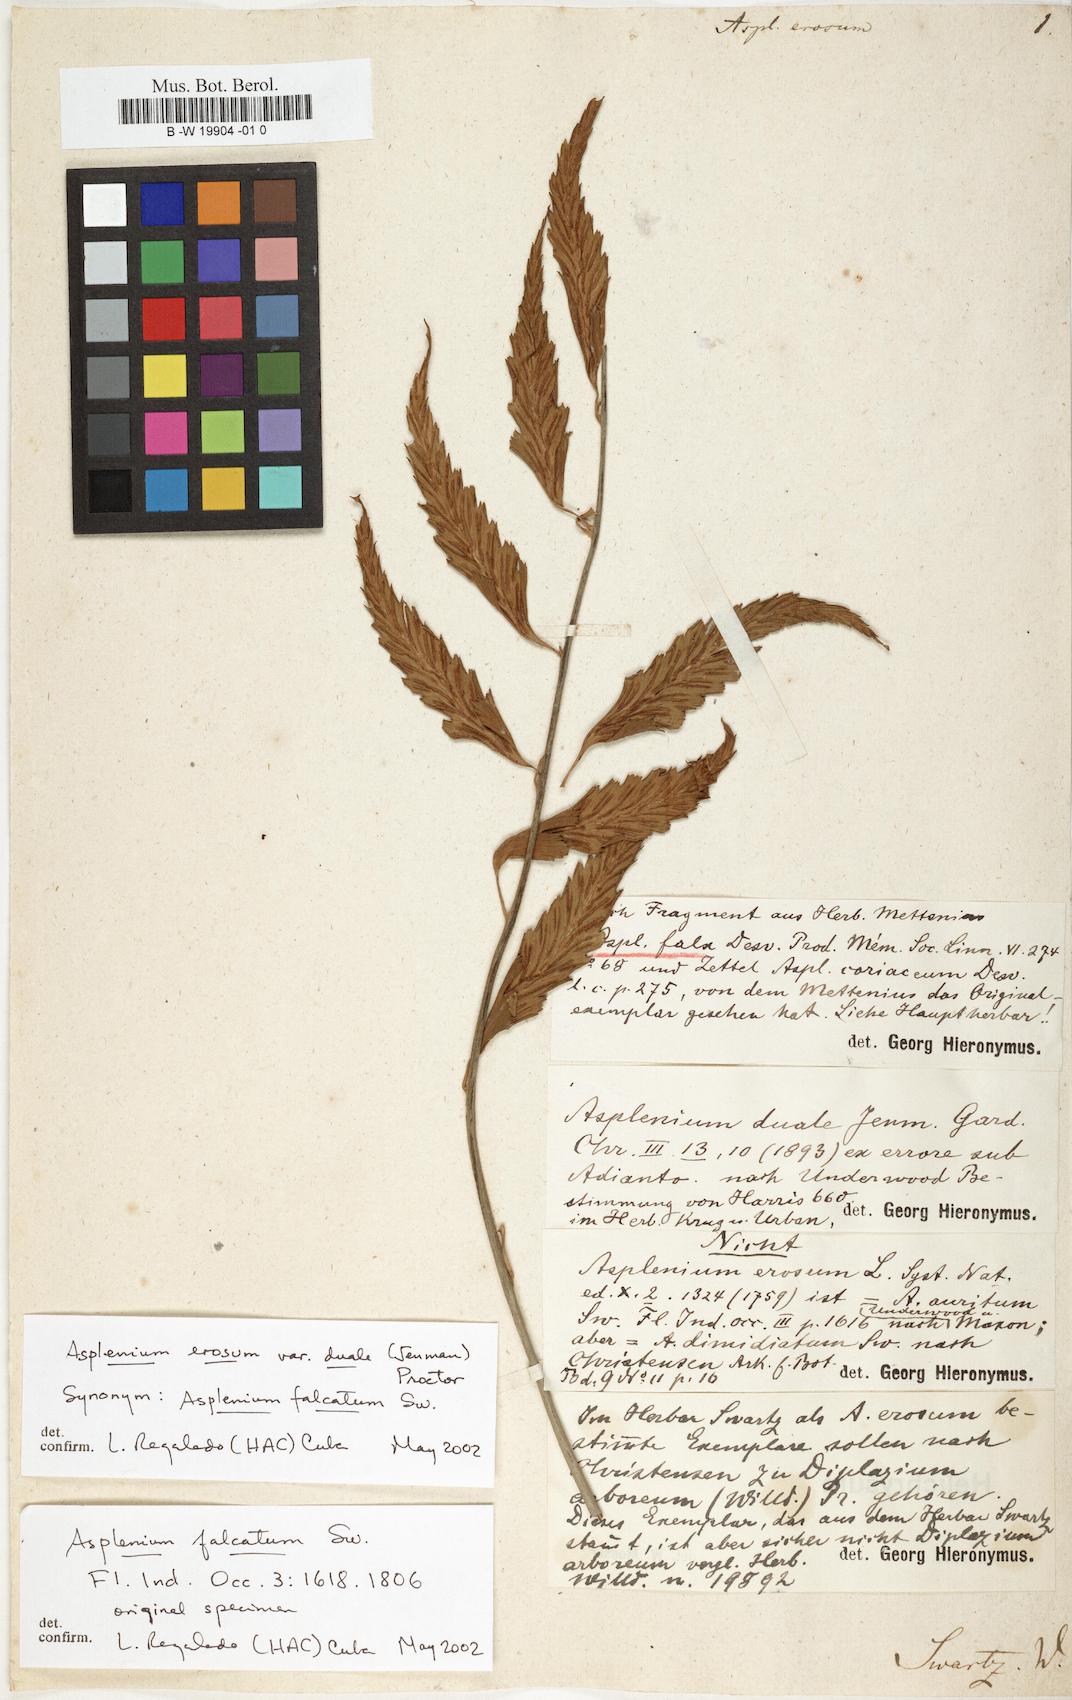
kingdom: Plantae
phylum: Tracheophyta
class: Polypodiopsida
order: Polypodiales
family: Aspleniaceae
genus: Asplenium
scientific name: Asplenium erosum
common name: Eared spleenwort
